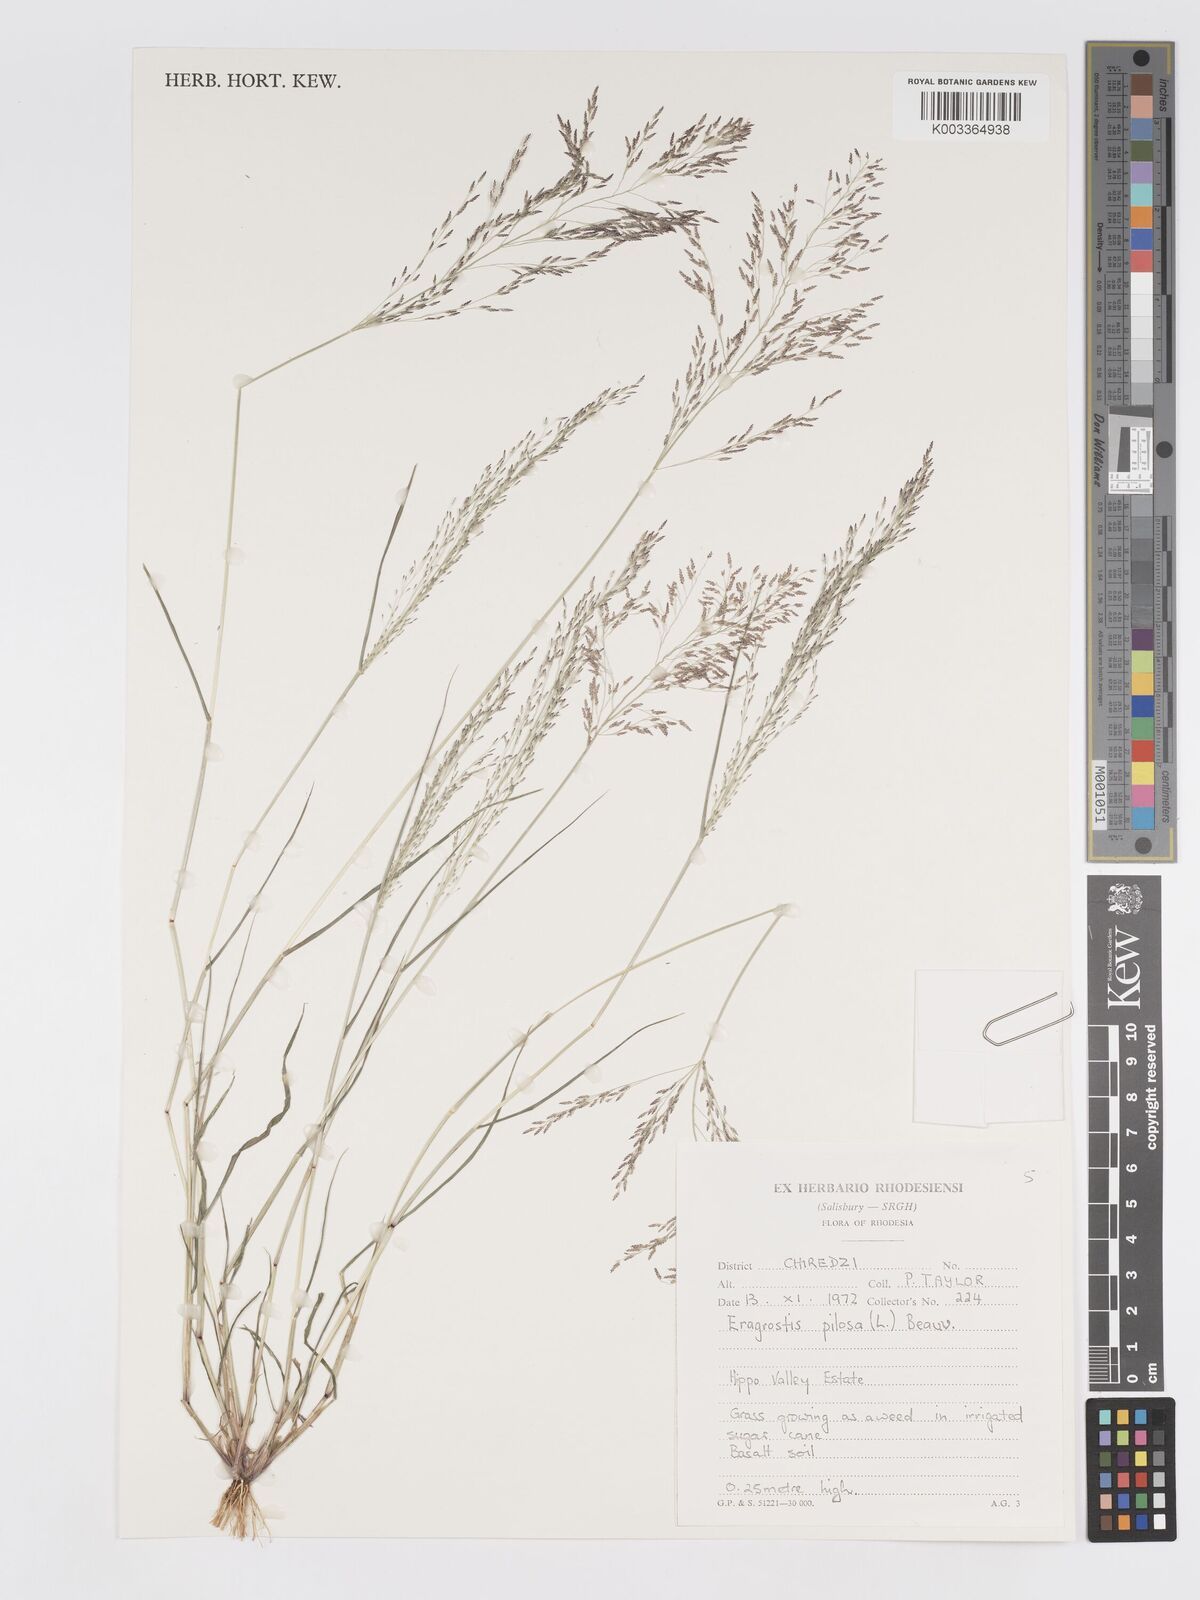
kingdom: Plantae
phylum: Tracheophyta
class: Liliopsida
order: Poales
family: Poaceae
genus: Eragrostis
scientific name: Eragrostis pilosa
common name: Indian lovegrass
